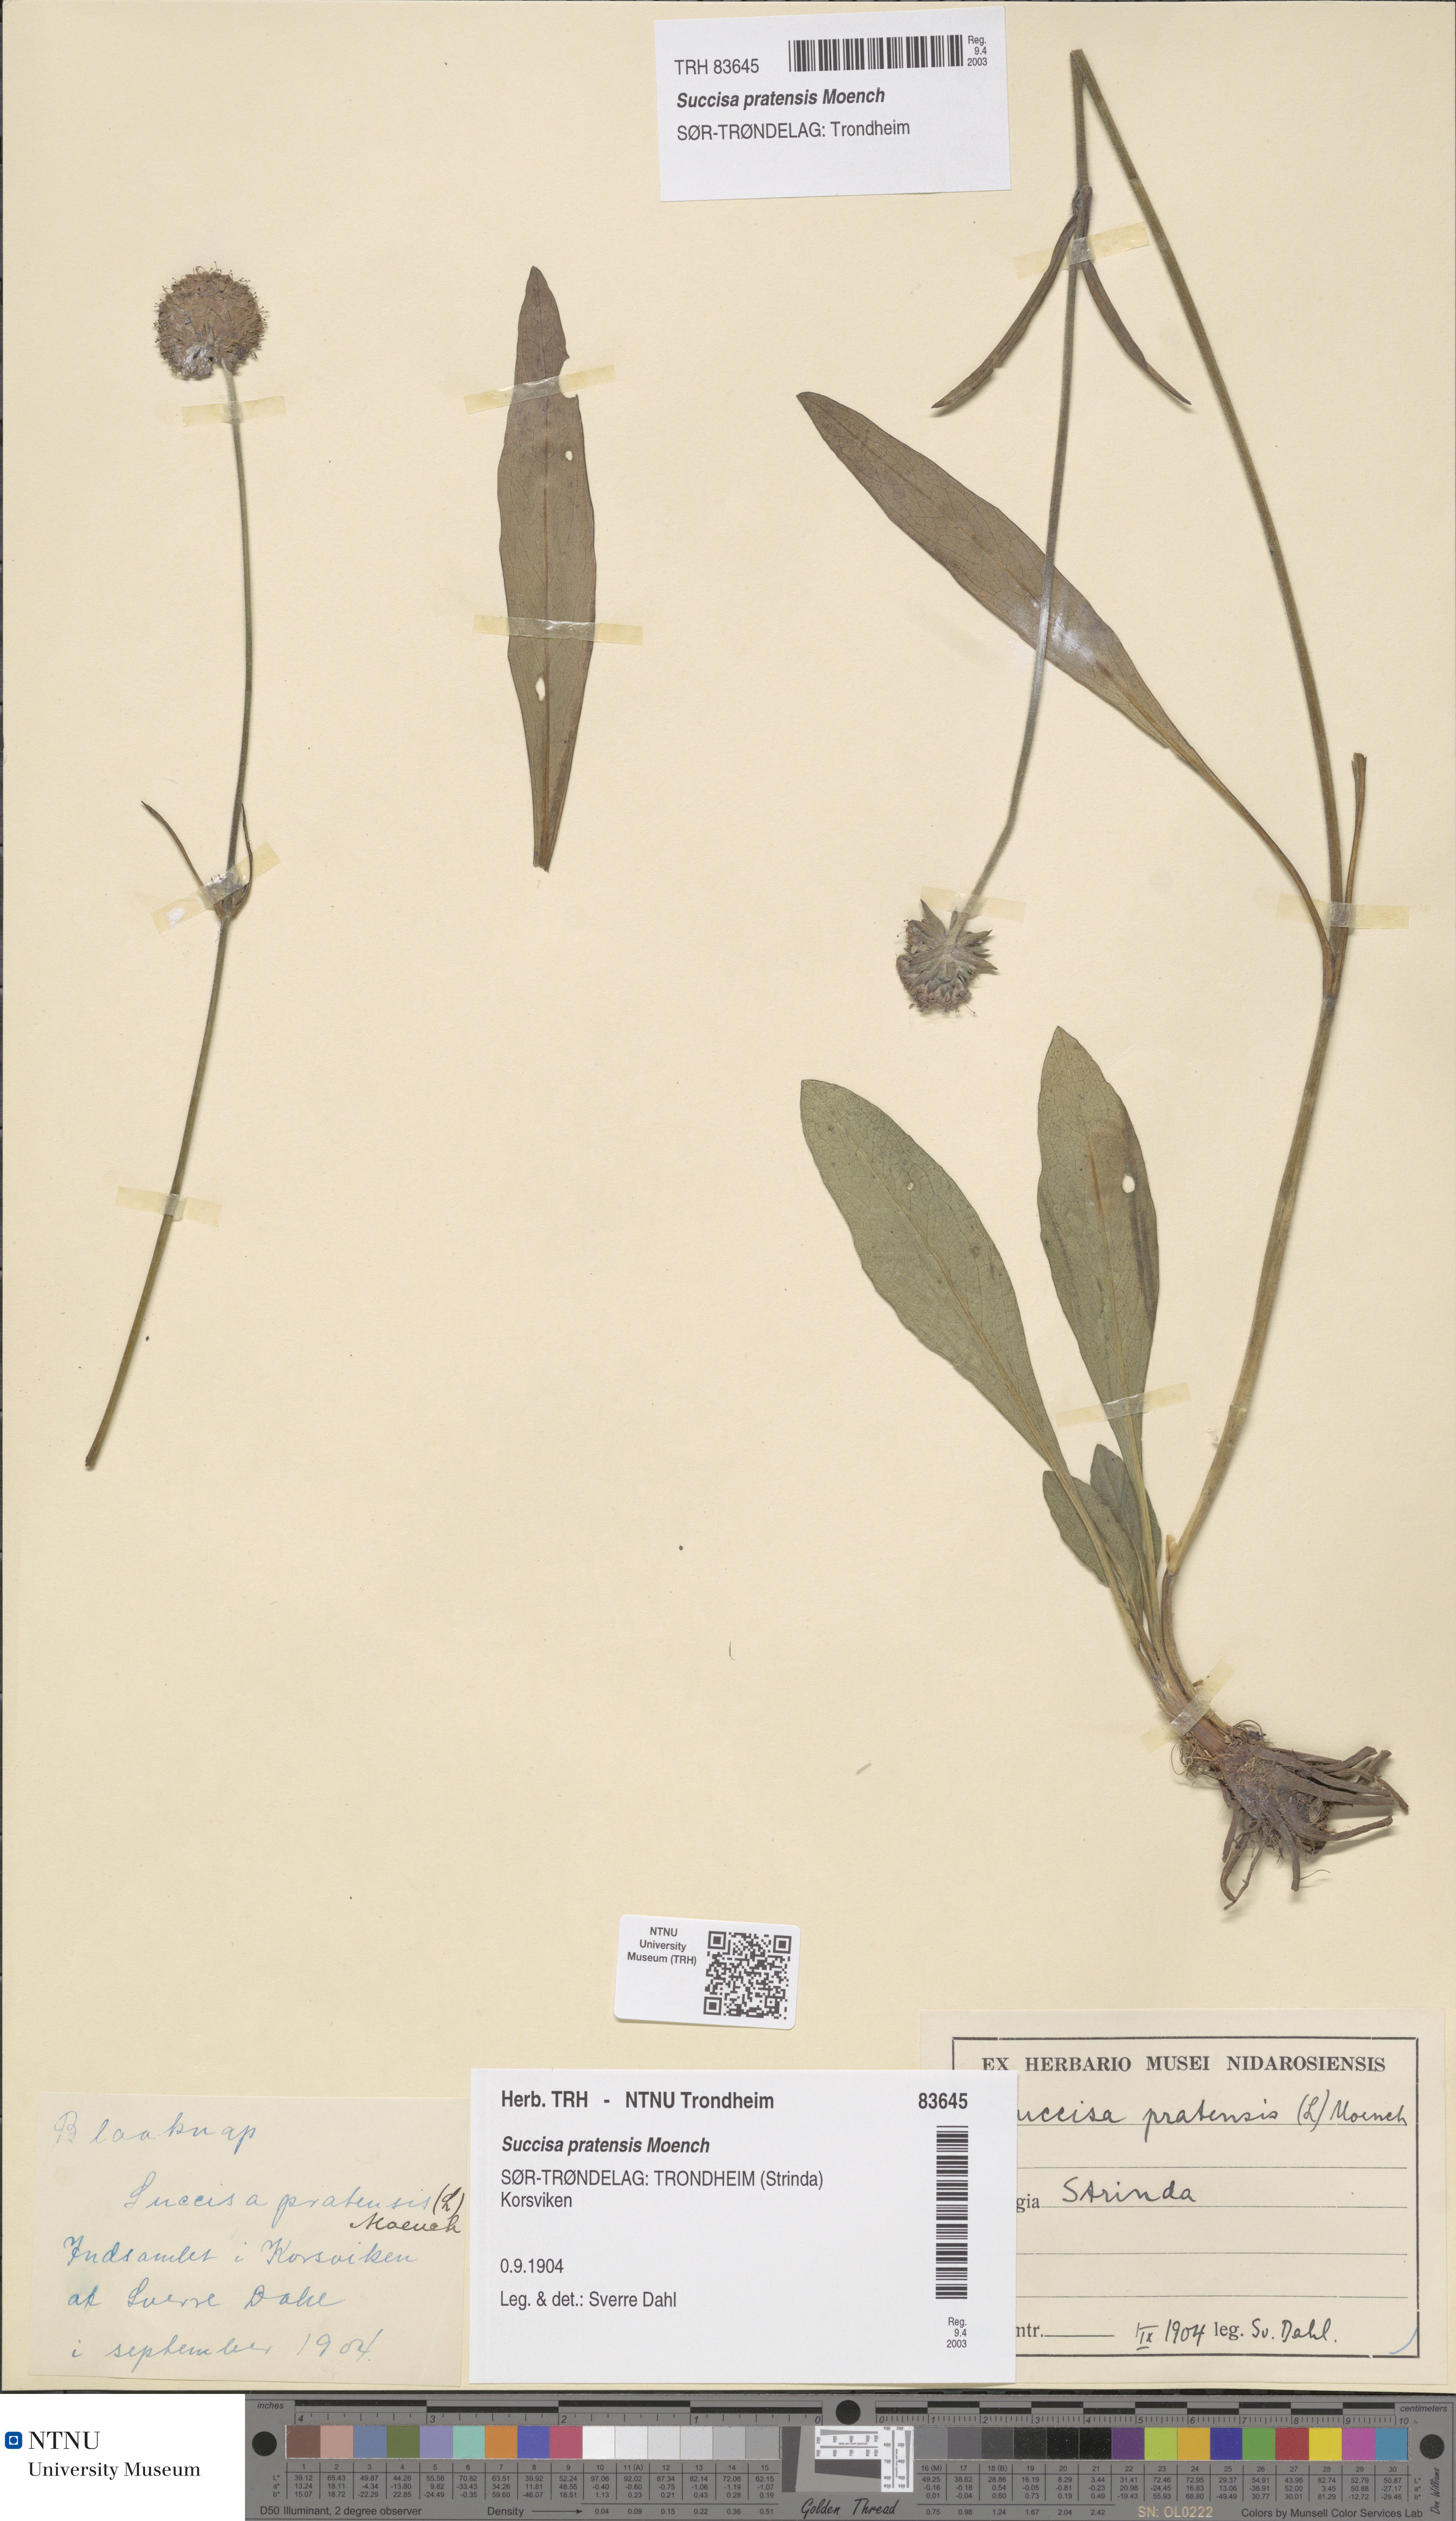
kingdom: Plantae
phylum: Tracheophyta
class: Magnoliopsida
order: Dipsacales
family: Caprifoliaceae
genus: Succisa
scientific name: Succisa pratensis
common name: Devil's-bit
